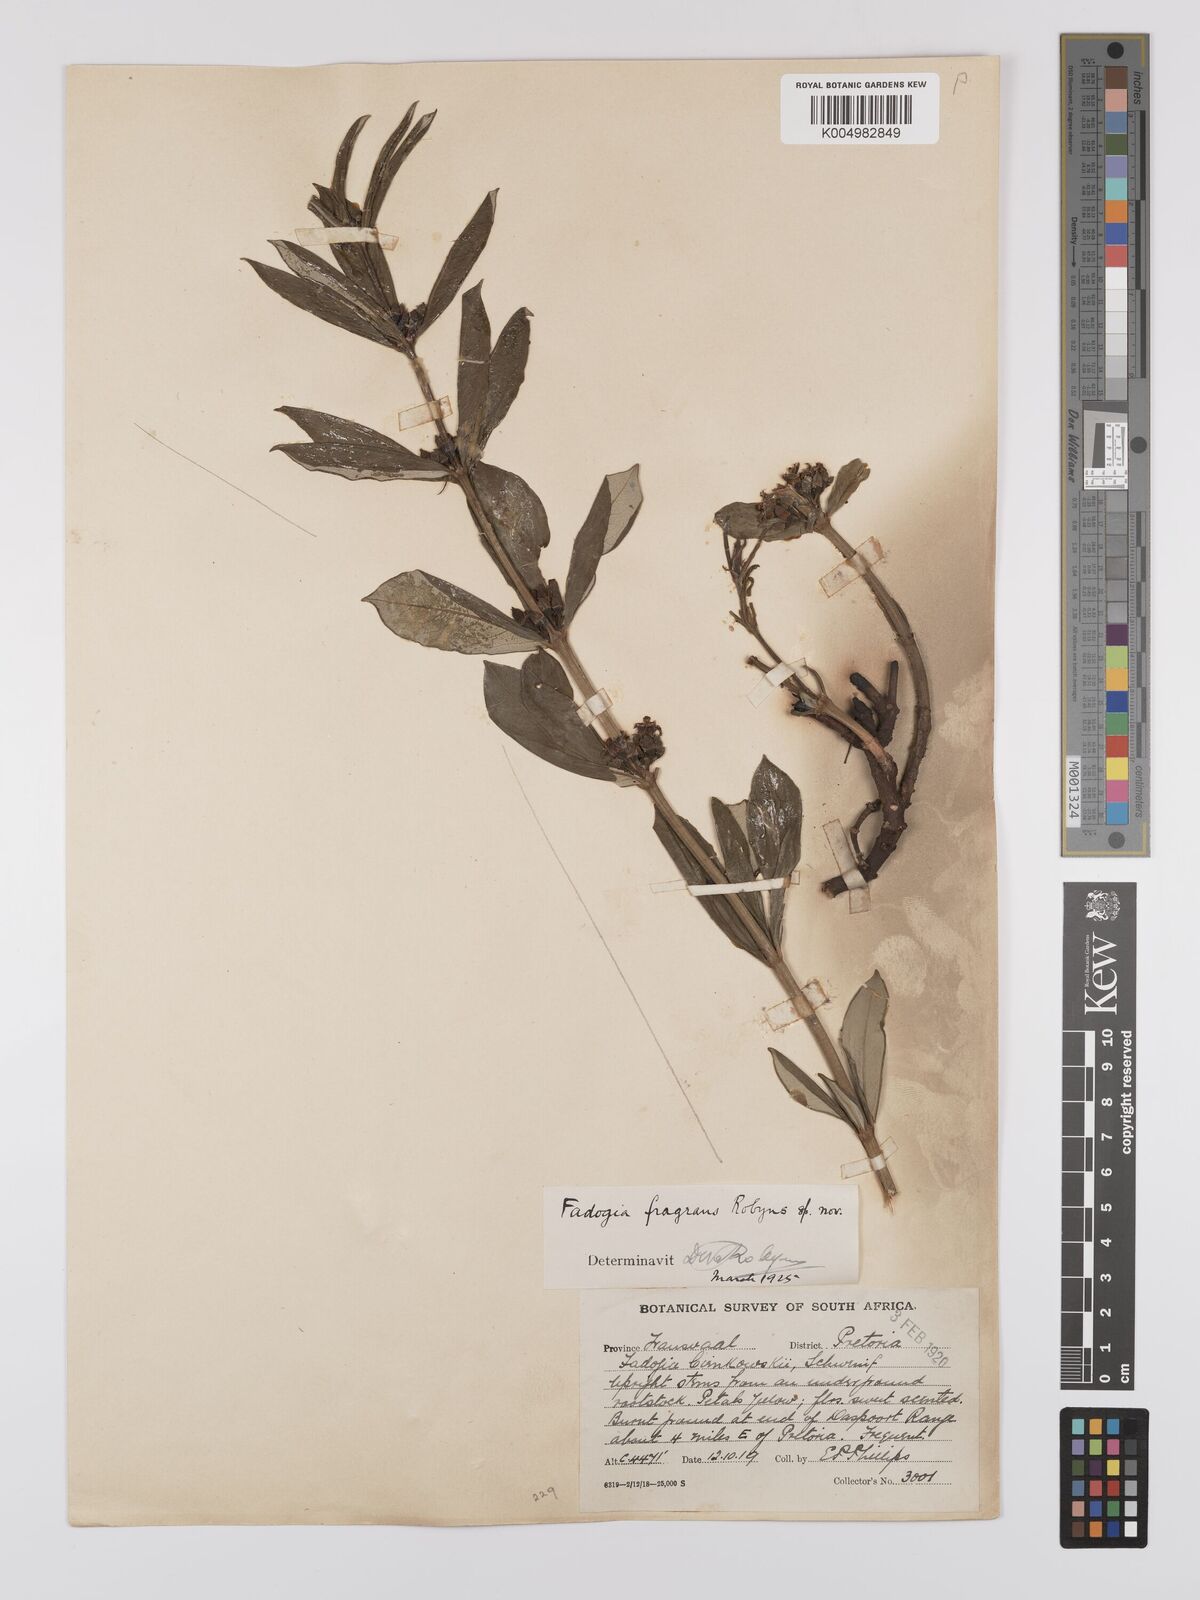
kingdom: Plantae
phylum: Tracheophyta
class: Magnoliopsida
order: Gentianales
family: Rubiaceae
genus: Fadogia
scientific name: Fadogia fragrans
